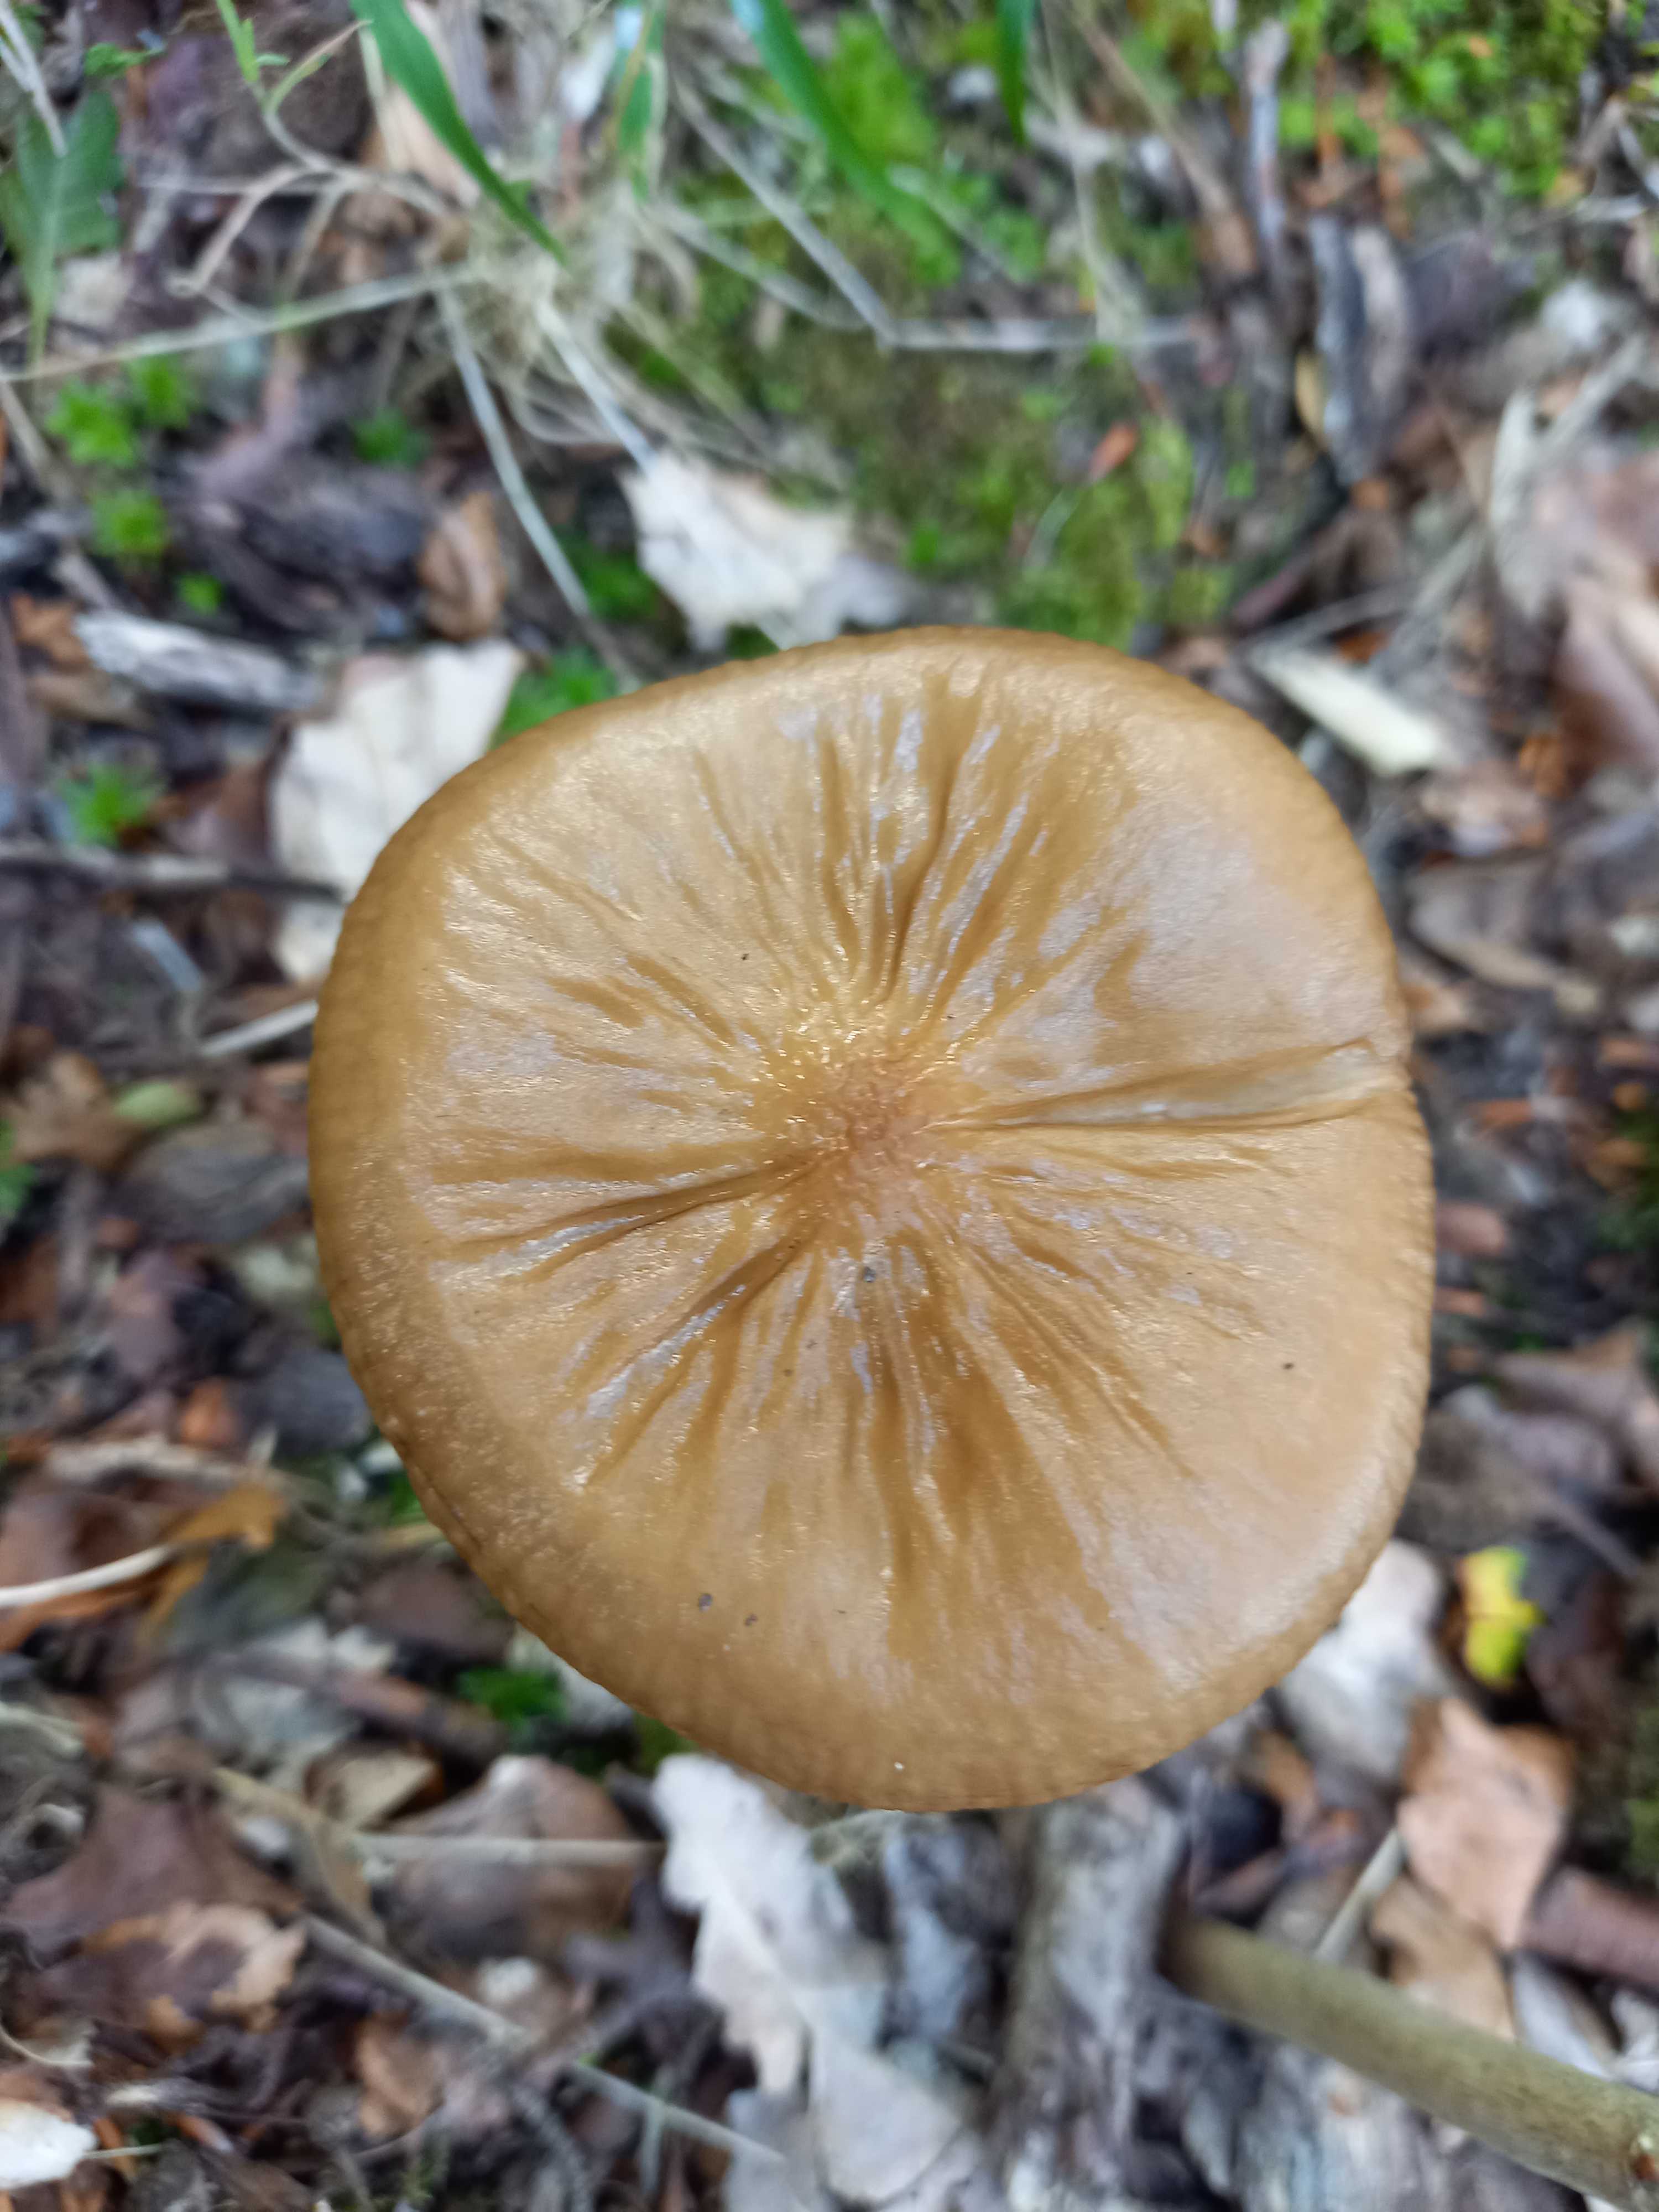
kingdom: Fungi
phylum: Basidiomycota
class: Agaricomycetes
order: Agaricales
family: Physalacriaceae
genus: Hymenopellis
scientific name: Hymenopellis radicata
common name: almindelig pælerodshat
